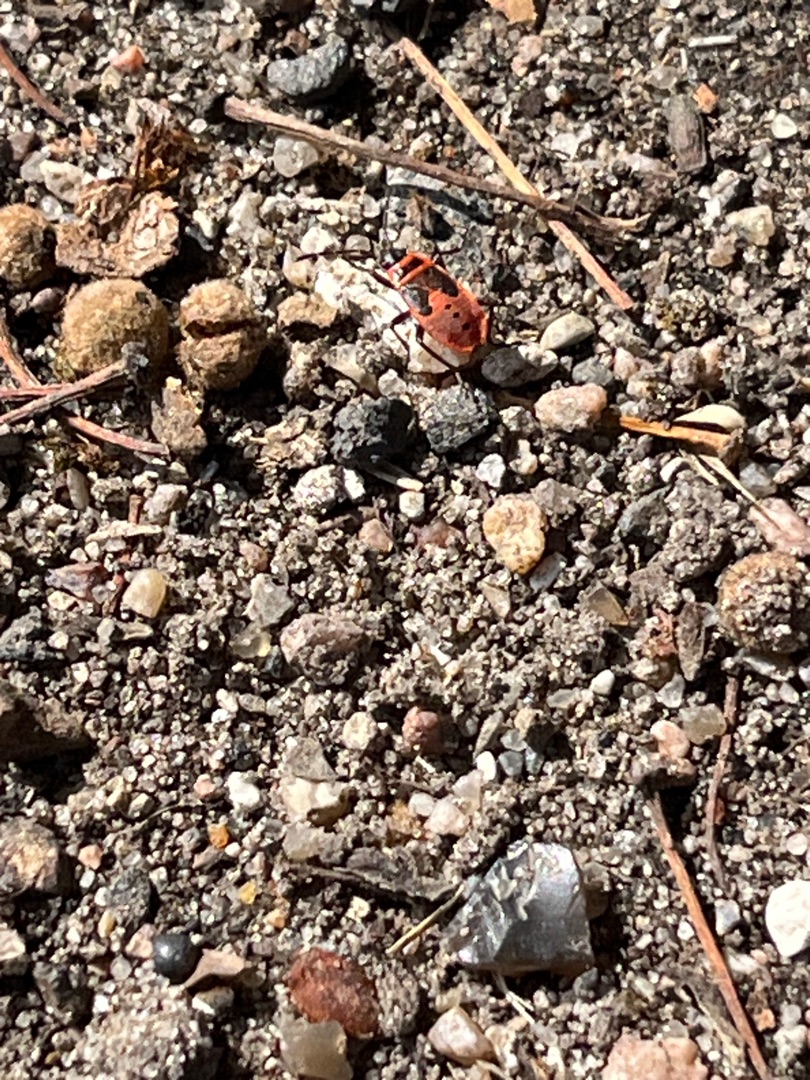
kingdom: Animalia
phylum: Arthropoda
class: Insecta
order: Hemiptera
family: Pyrrhocoridae
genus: Pyrrhocoris
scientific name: Pyrrhocoris apterus
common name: Ildtæge
